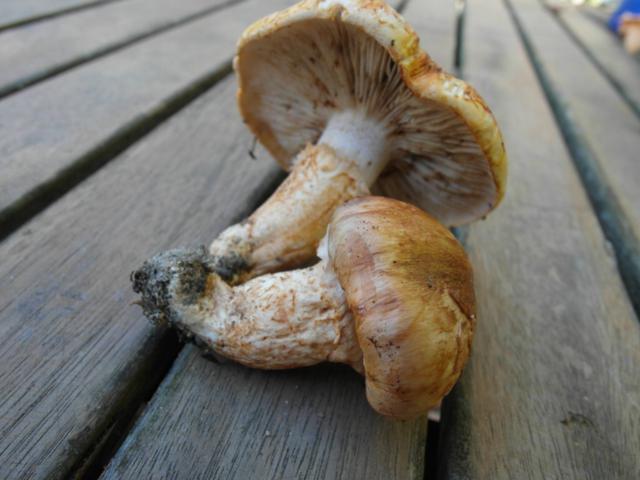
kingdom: Fungi
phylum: Basidiomycota
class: Agaricomycetes
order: Agaricales
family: Tricholomataceae
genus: Tricholoma
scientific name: Tricholoma focale
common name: halsbånd-ridderhat
